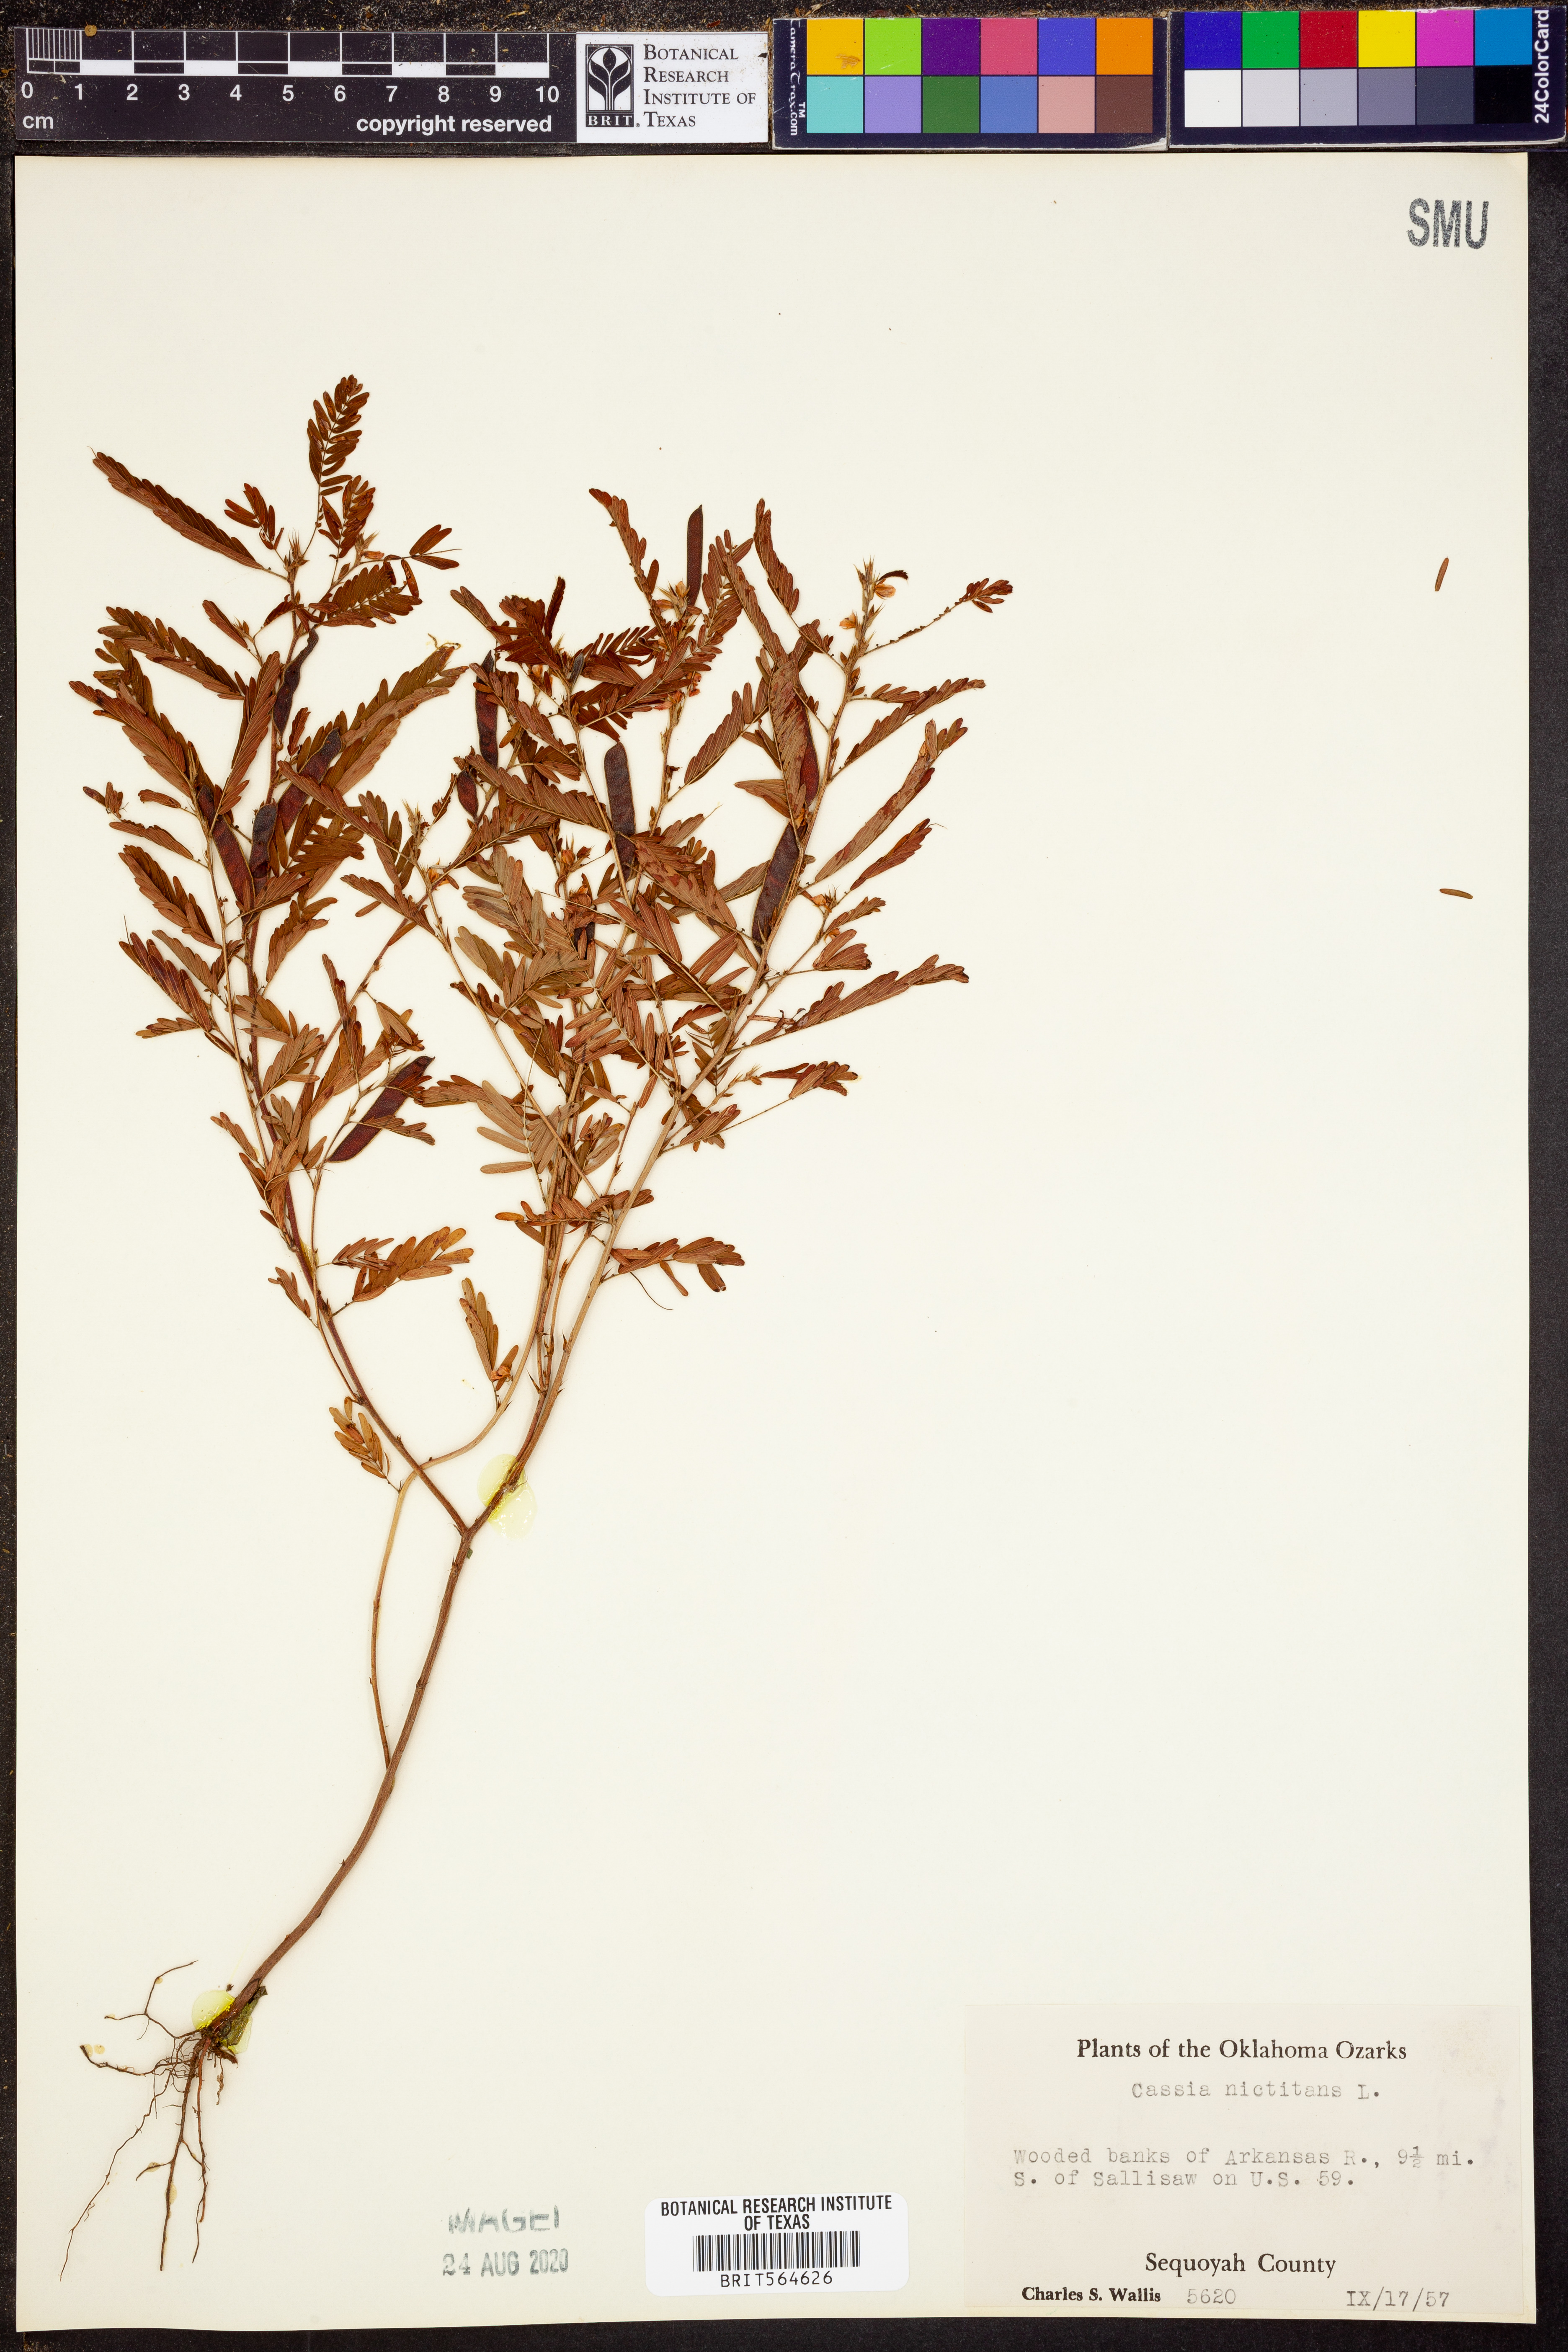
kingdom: Plantae
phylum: Tracheophyta
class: Magnoliopsida
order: Fabales
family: Fabaceae
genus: Chamaecrista
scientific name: Chamaecrista nictitans
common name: Sensitive cassia
